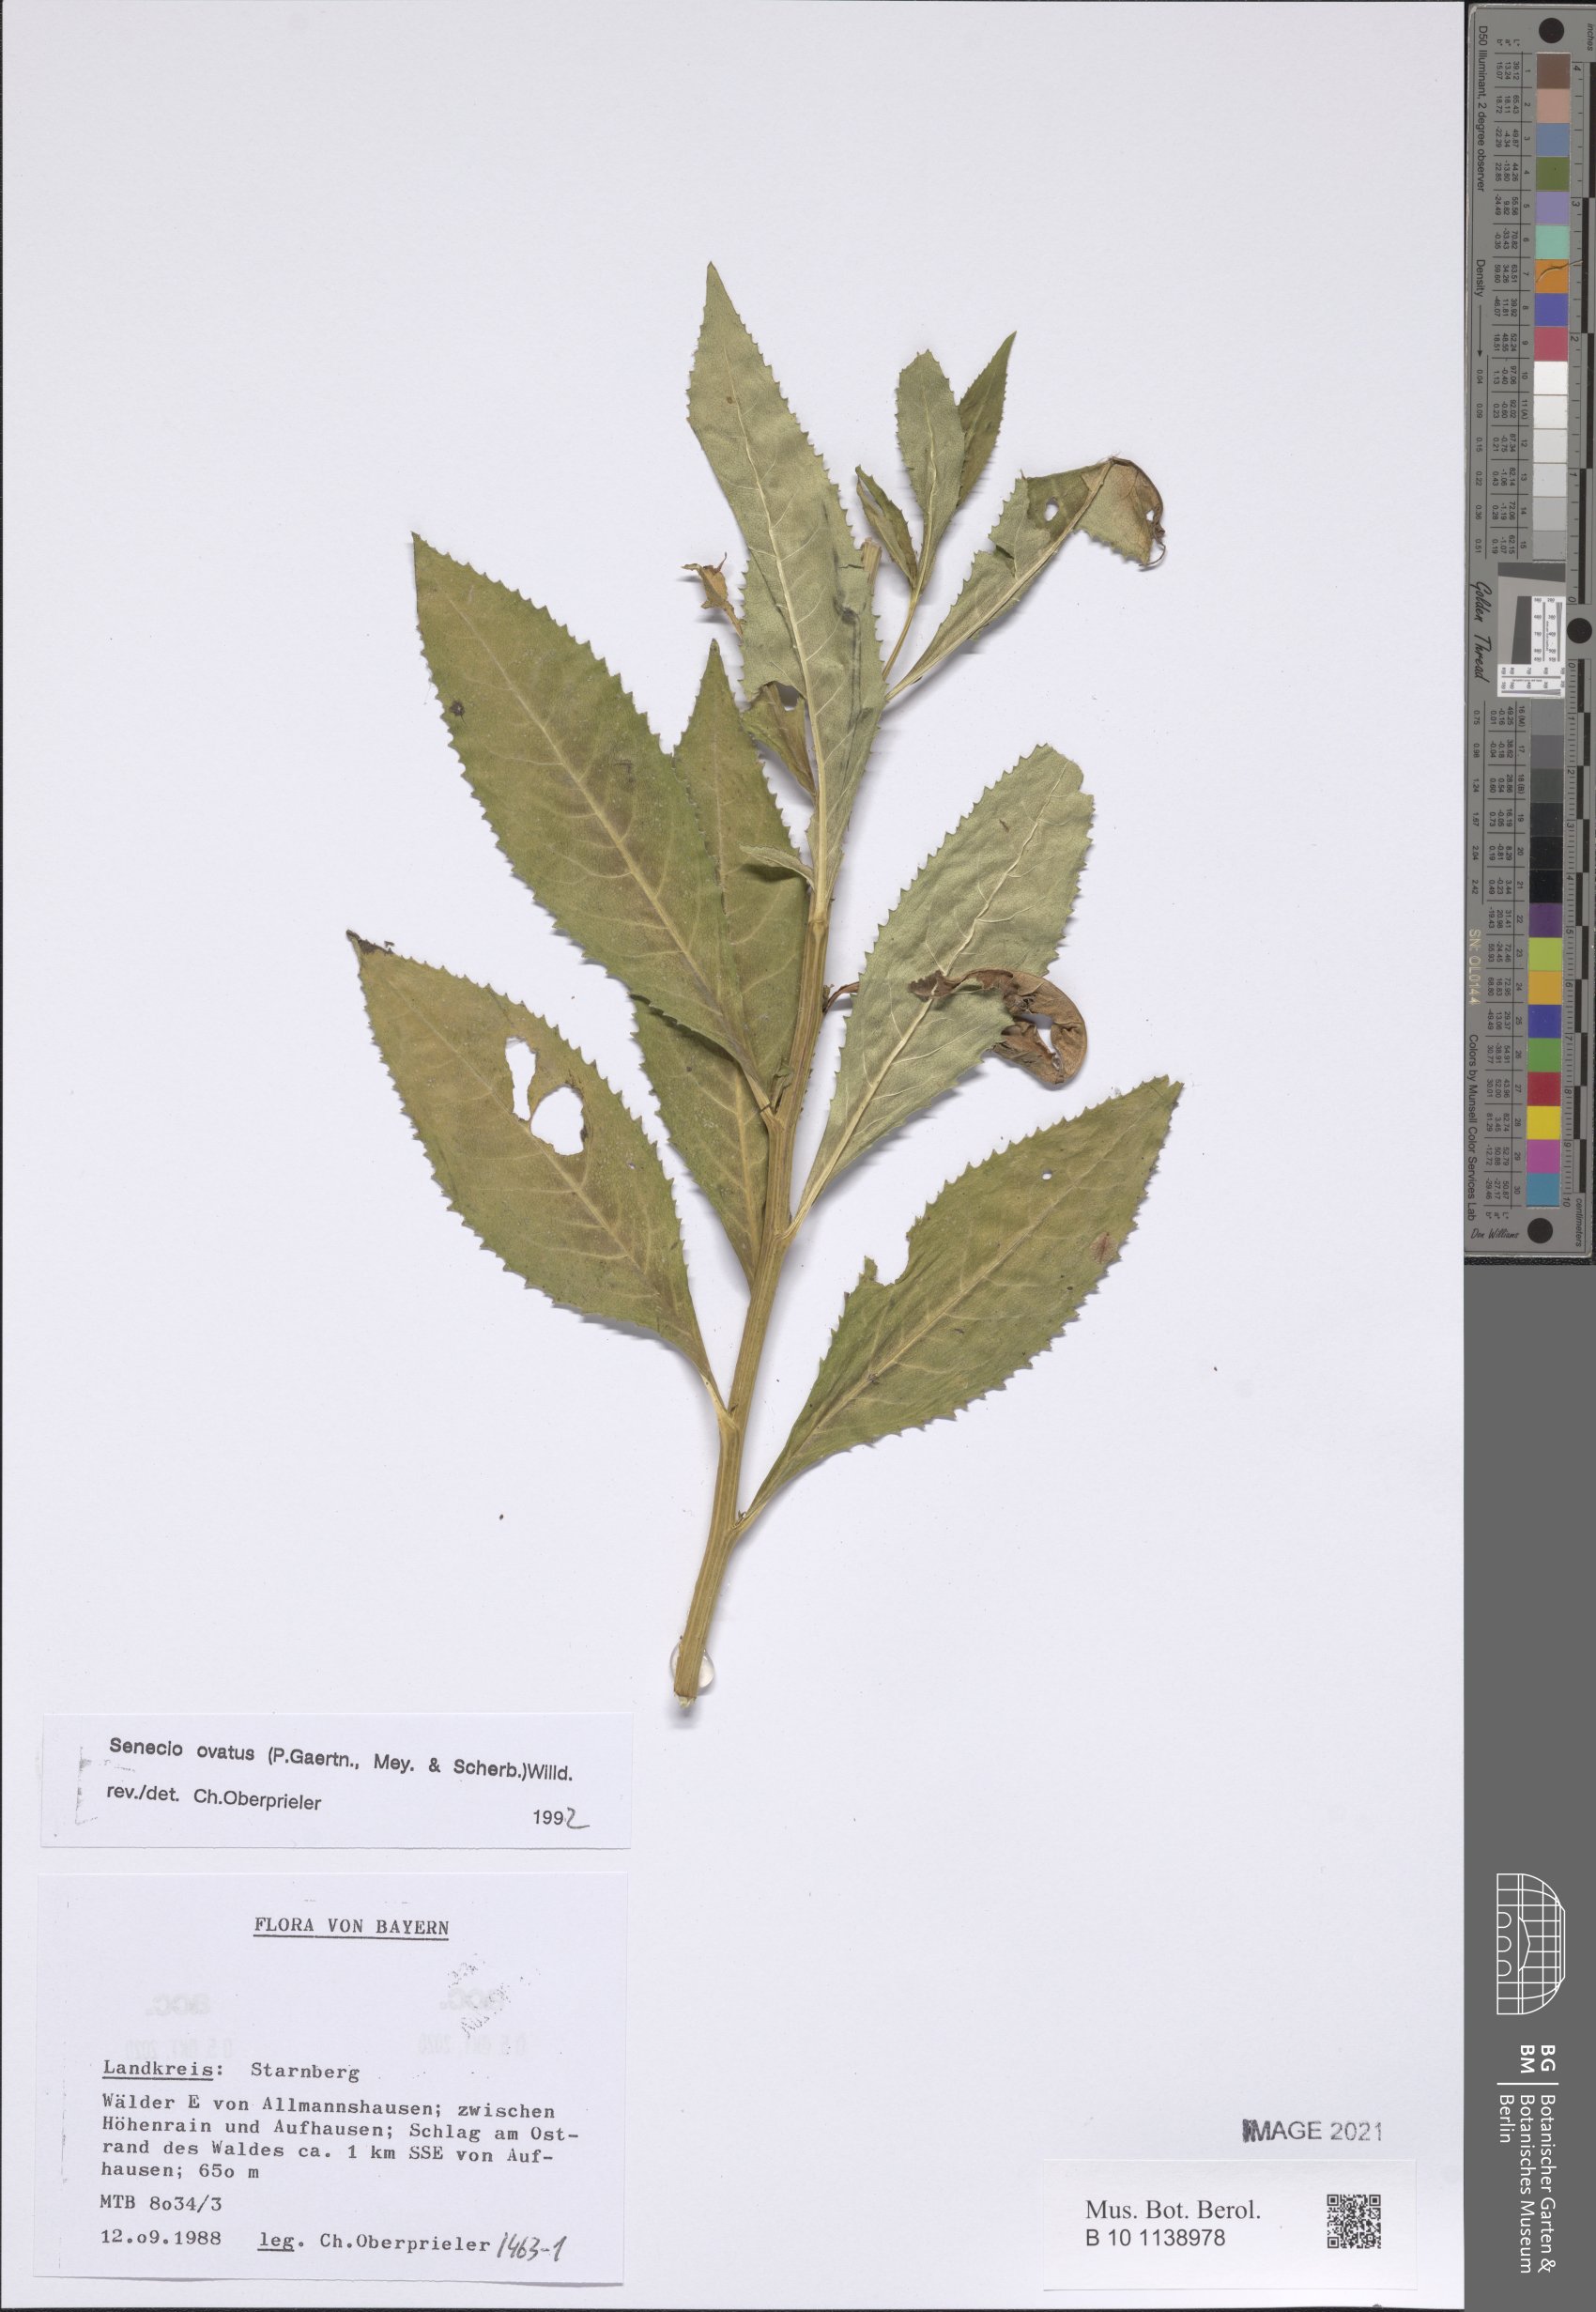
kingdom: Plantae
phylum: Tracheophyta
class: Magnoliopsida
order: Asterales
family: Asteraceae
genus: Senecio
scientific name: Senecio ovatus
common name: Wood ragwort
